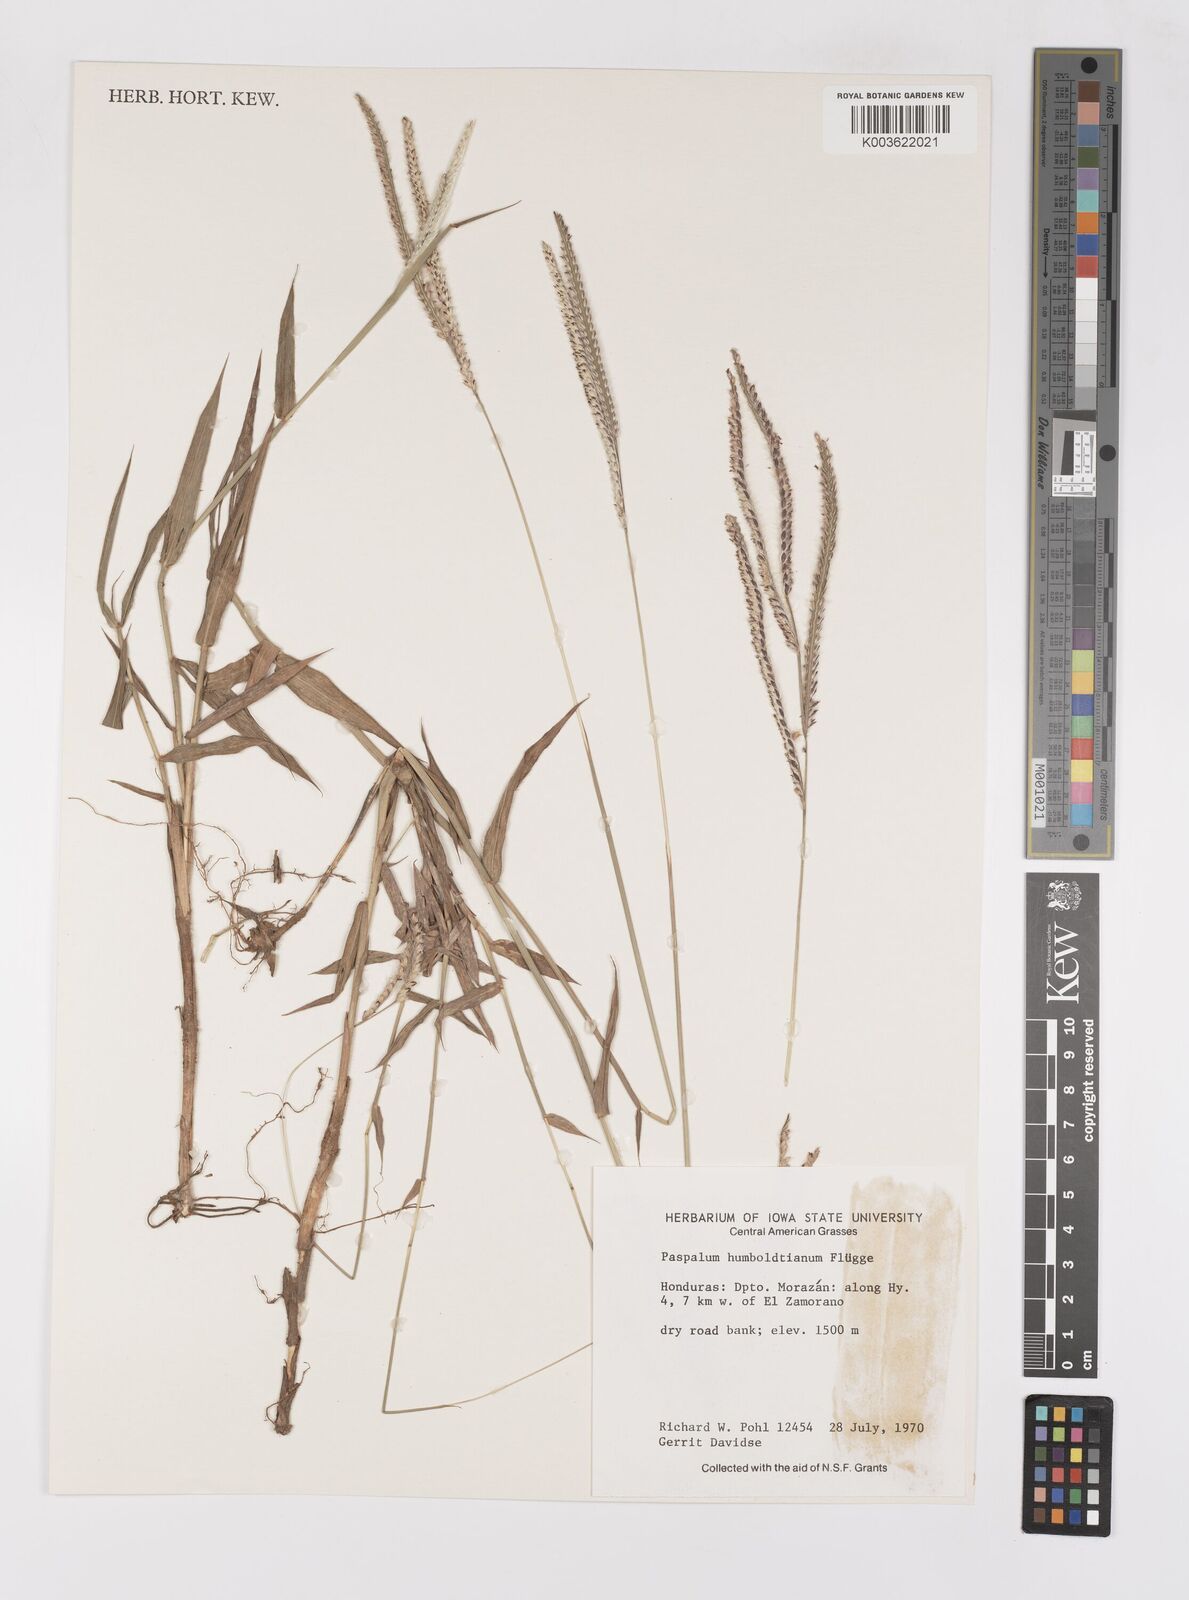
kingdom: Plantae
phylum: Tracheophyta
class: Liliopsida
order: Poales
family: Poaceae
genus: Paspalum
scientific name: Paspalum humboldtianum
